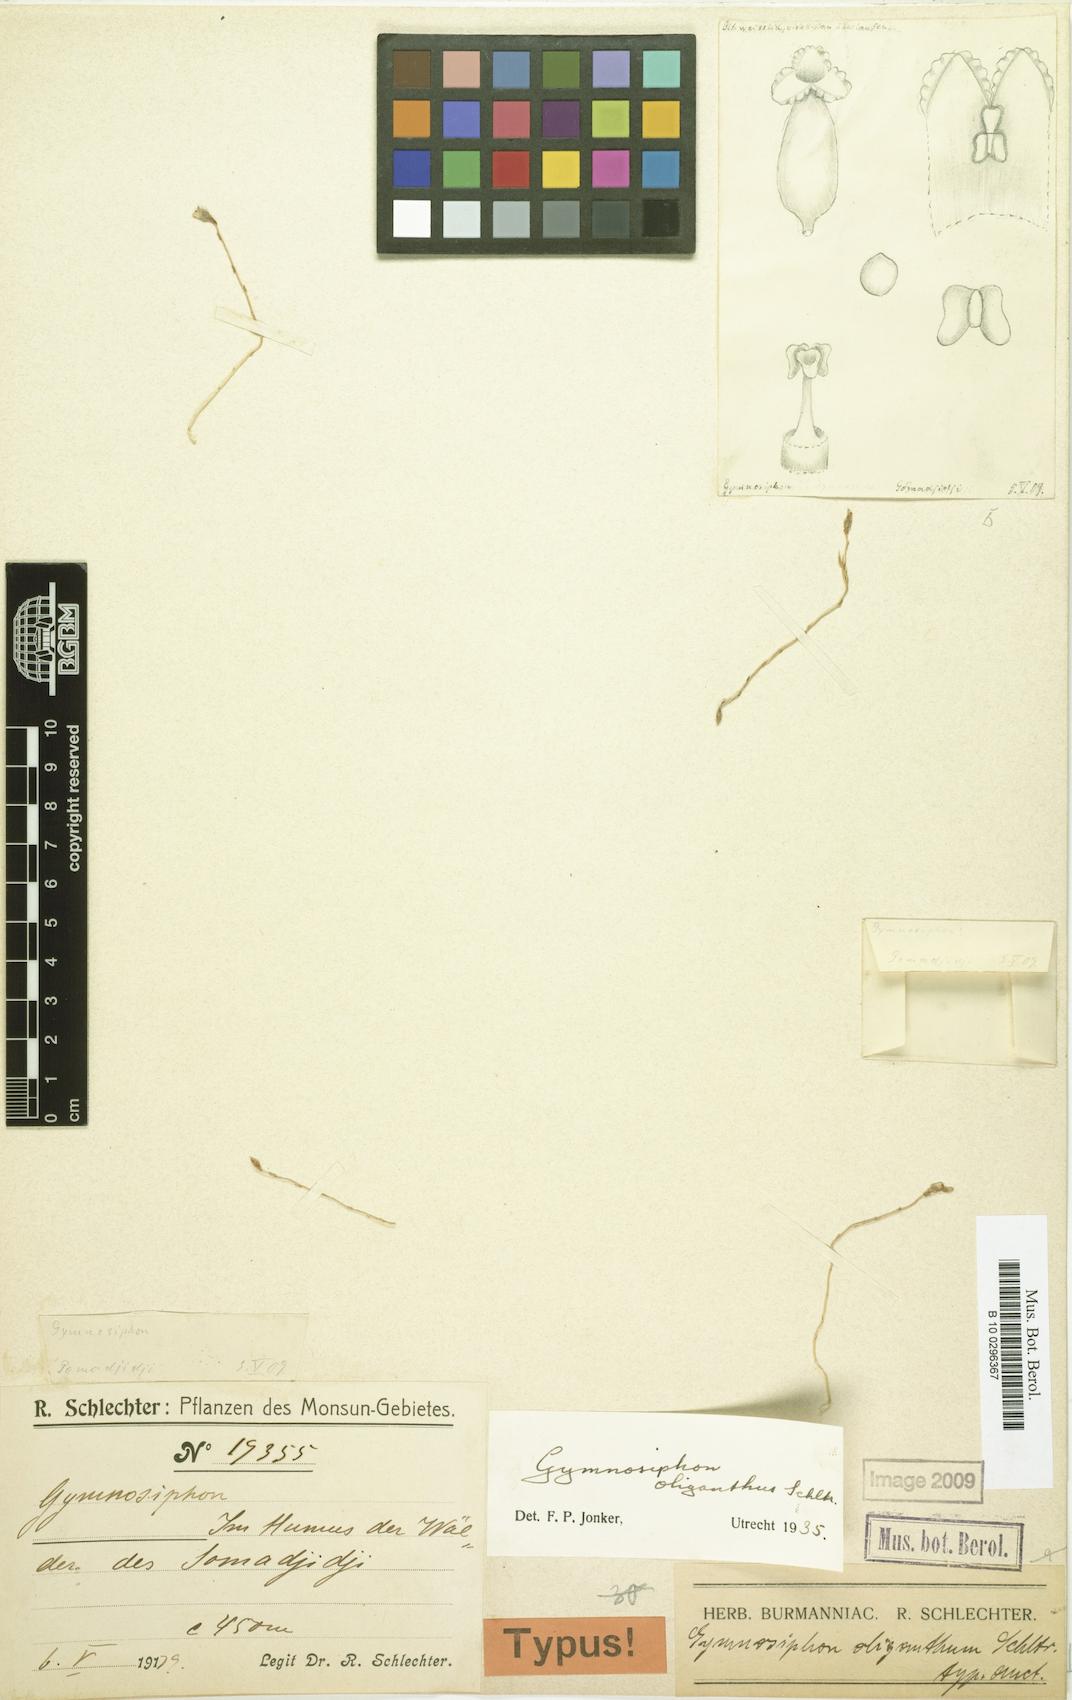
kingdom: Plantae
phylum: Tracheophyta
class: Liliopsida
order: Dioscoreales
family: Burmanniaceae
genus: Gymnosiphon
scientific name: Gymnosiphon oliganthus
